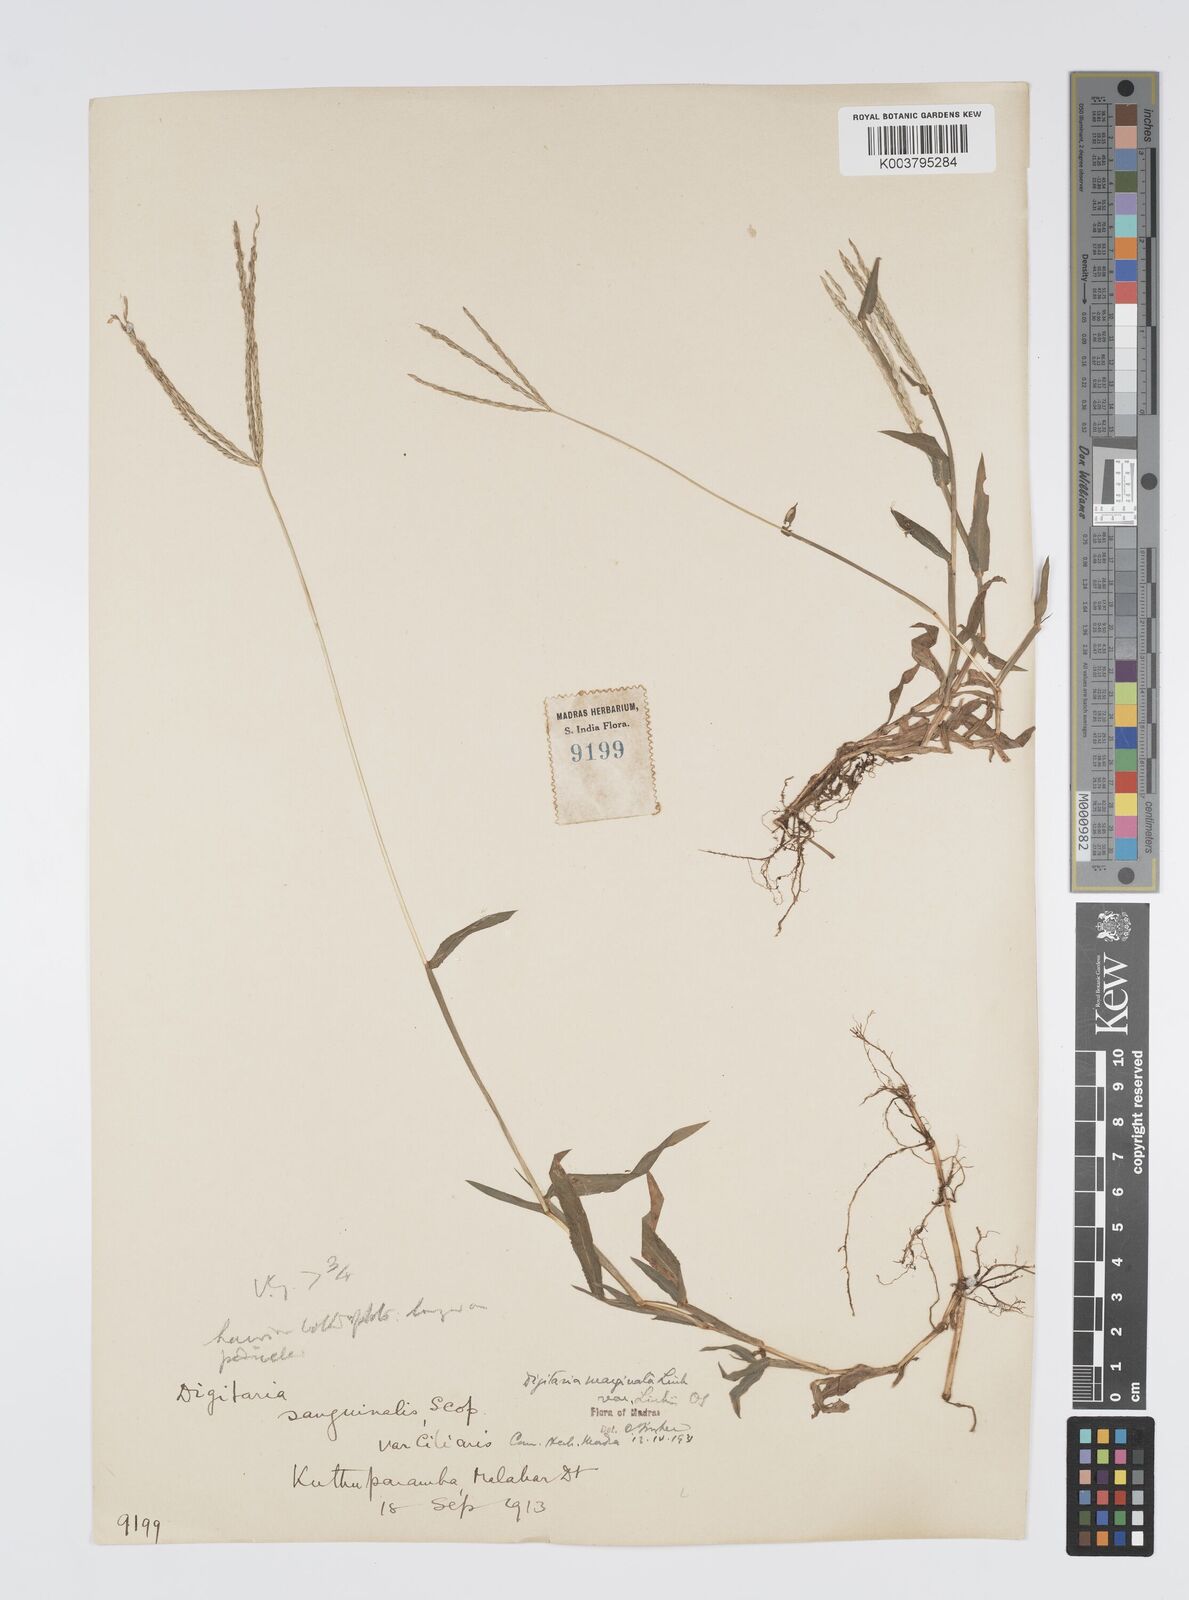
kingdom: Plantae
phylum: Tracheophyta
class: Liliopsida
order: Poales
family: Poaceae
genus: Digitaria
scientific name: Digitaria spec
